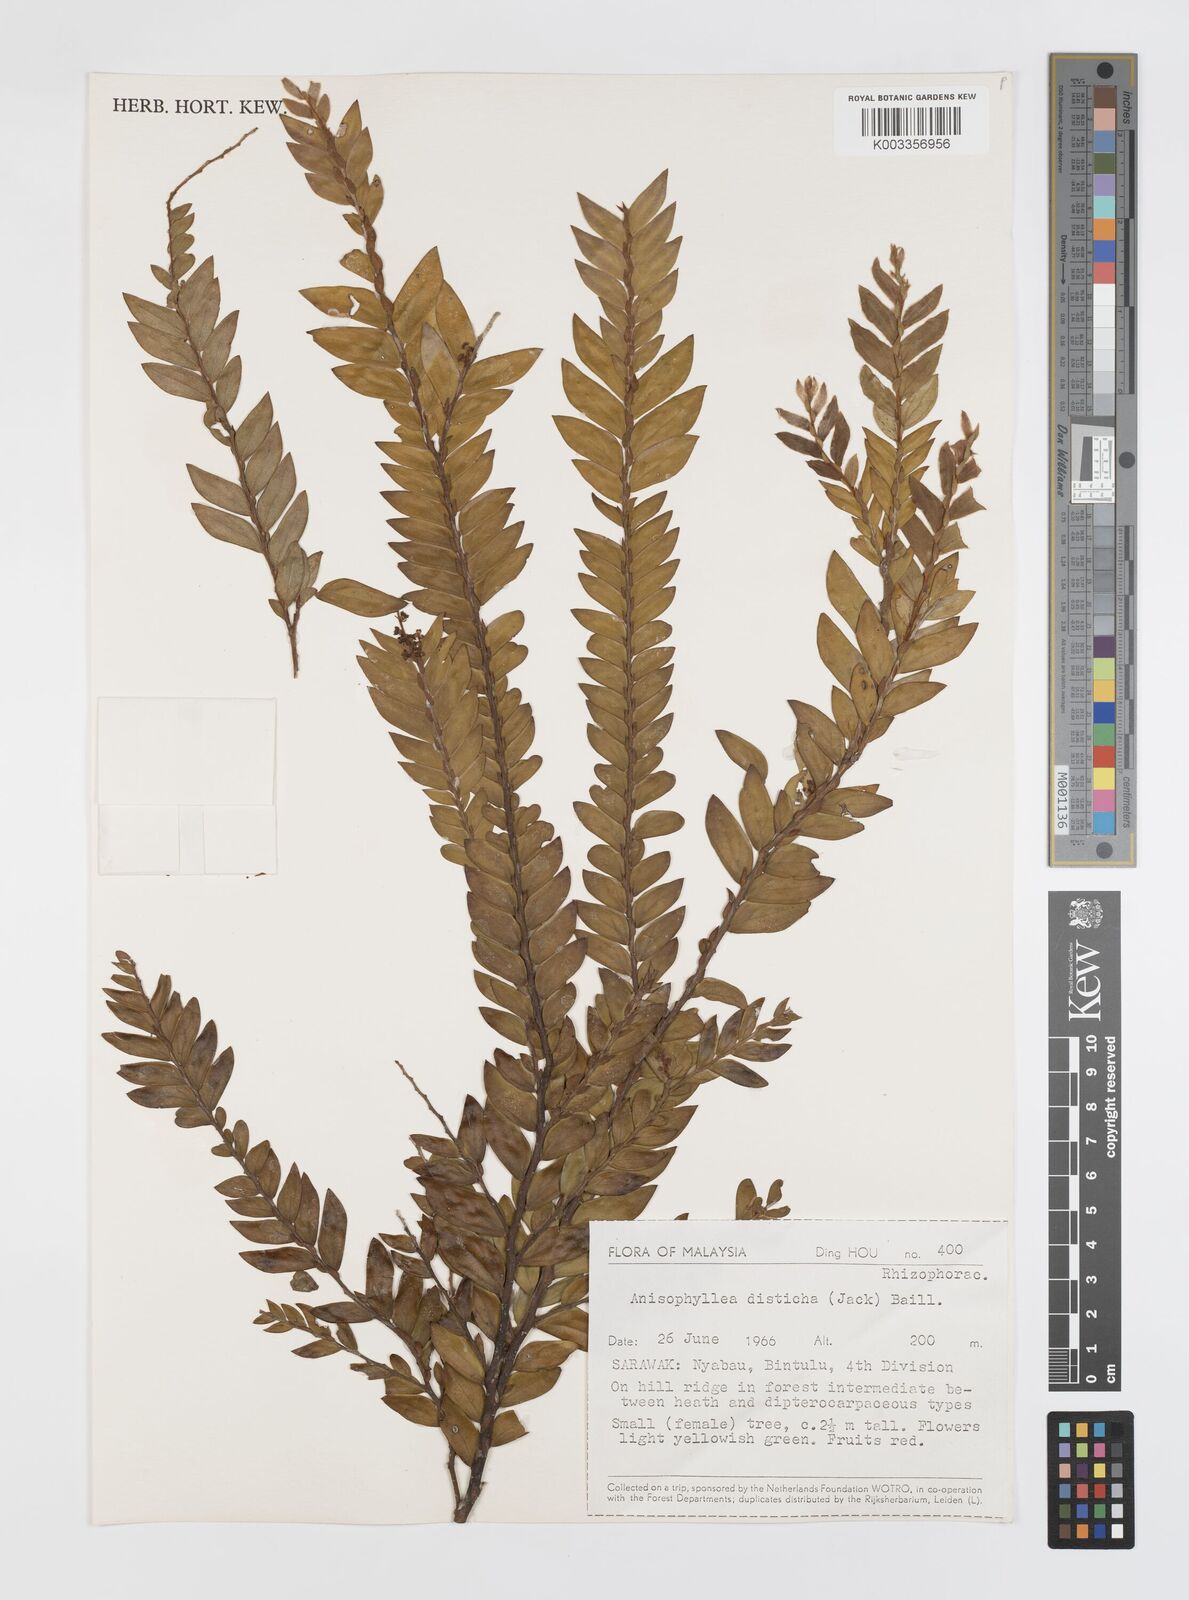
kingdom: Plantae
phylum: Tracheophyta
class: Magnoliopsida
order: Cucurbitales
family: Anisophylleaceae
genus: Anisophyllea
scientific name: Anisophyllea disticha
